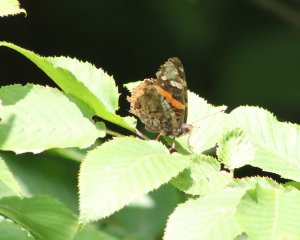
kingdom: Animalia
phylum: Arthropoda
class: Insecta
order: Lepidoptera
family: Nymphalidae
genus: Vanessa
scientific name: Vanessa atalanta
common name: Red Admiral
